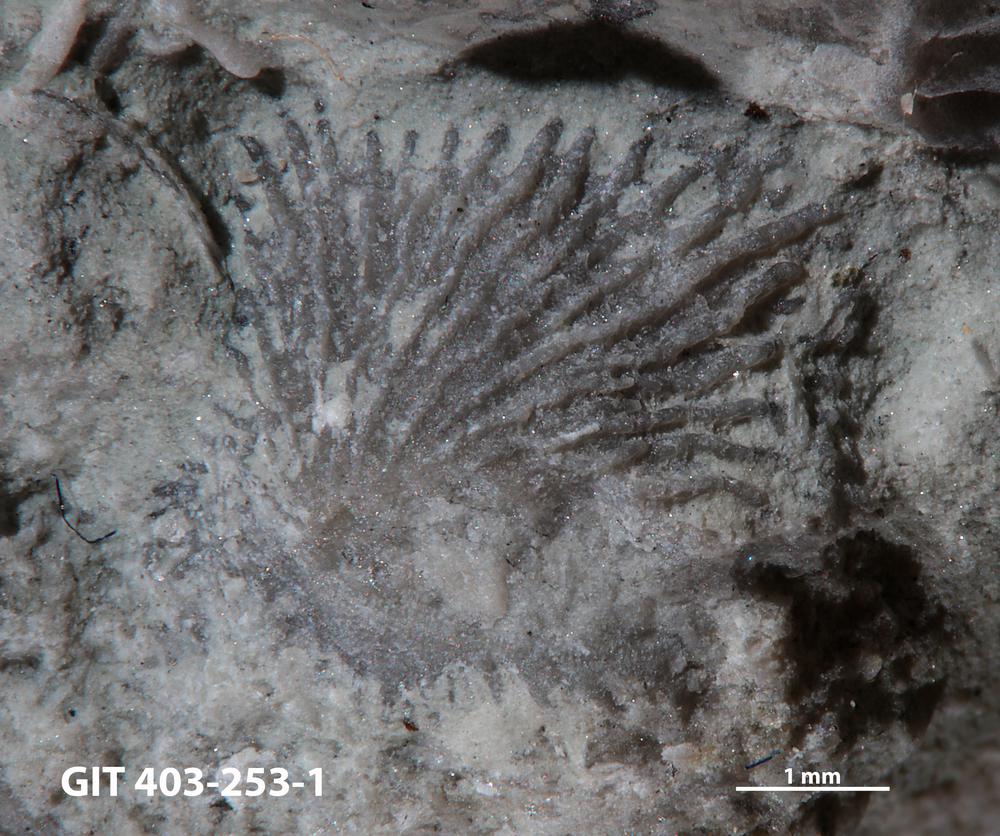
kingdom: Animalia
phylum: Brachiopoda
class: Craniata
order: Craniida
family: Craniidae
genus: Philhedra
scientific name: Philhedra
